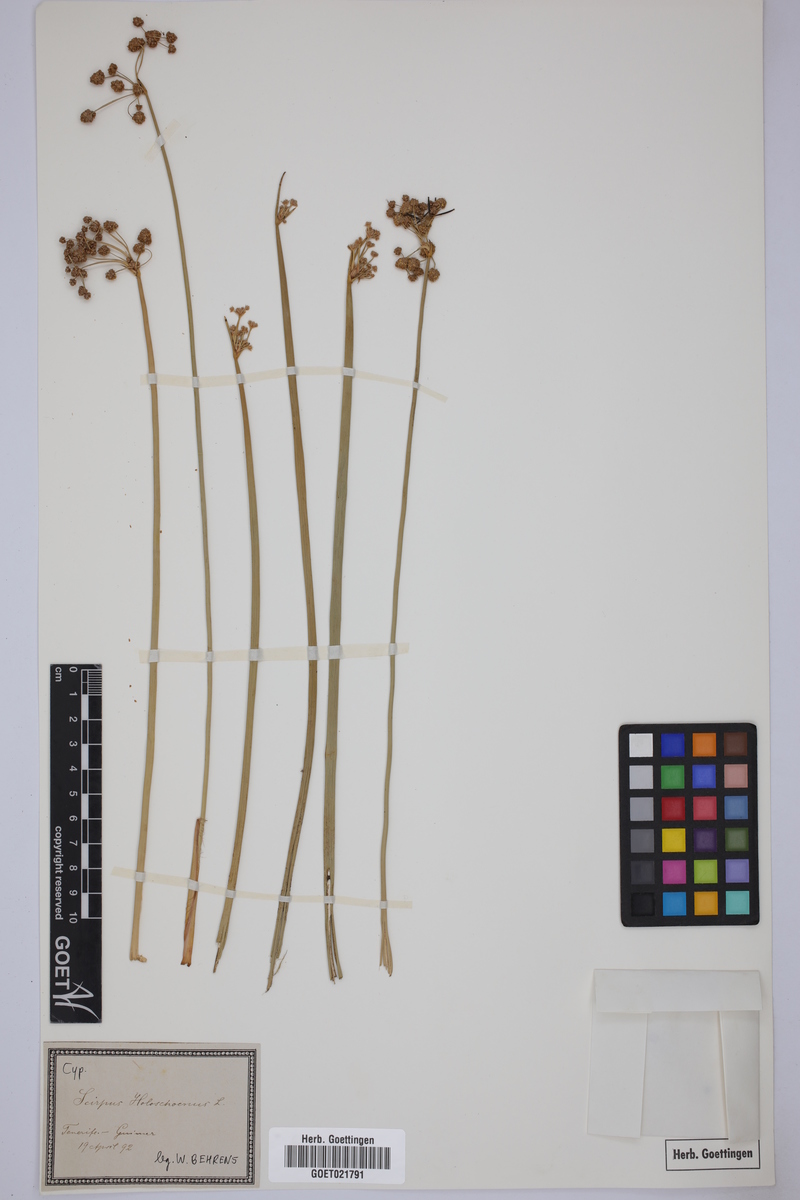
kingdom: Plantae
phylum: Tracheophyta
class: Liliopsida
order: Poales
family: Cyperaceae
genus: Scirpoides
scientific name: Scirpoides holoschoenus
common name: Round-headed club-rush
